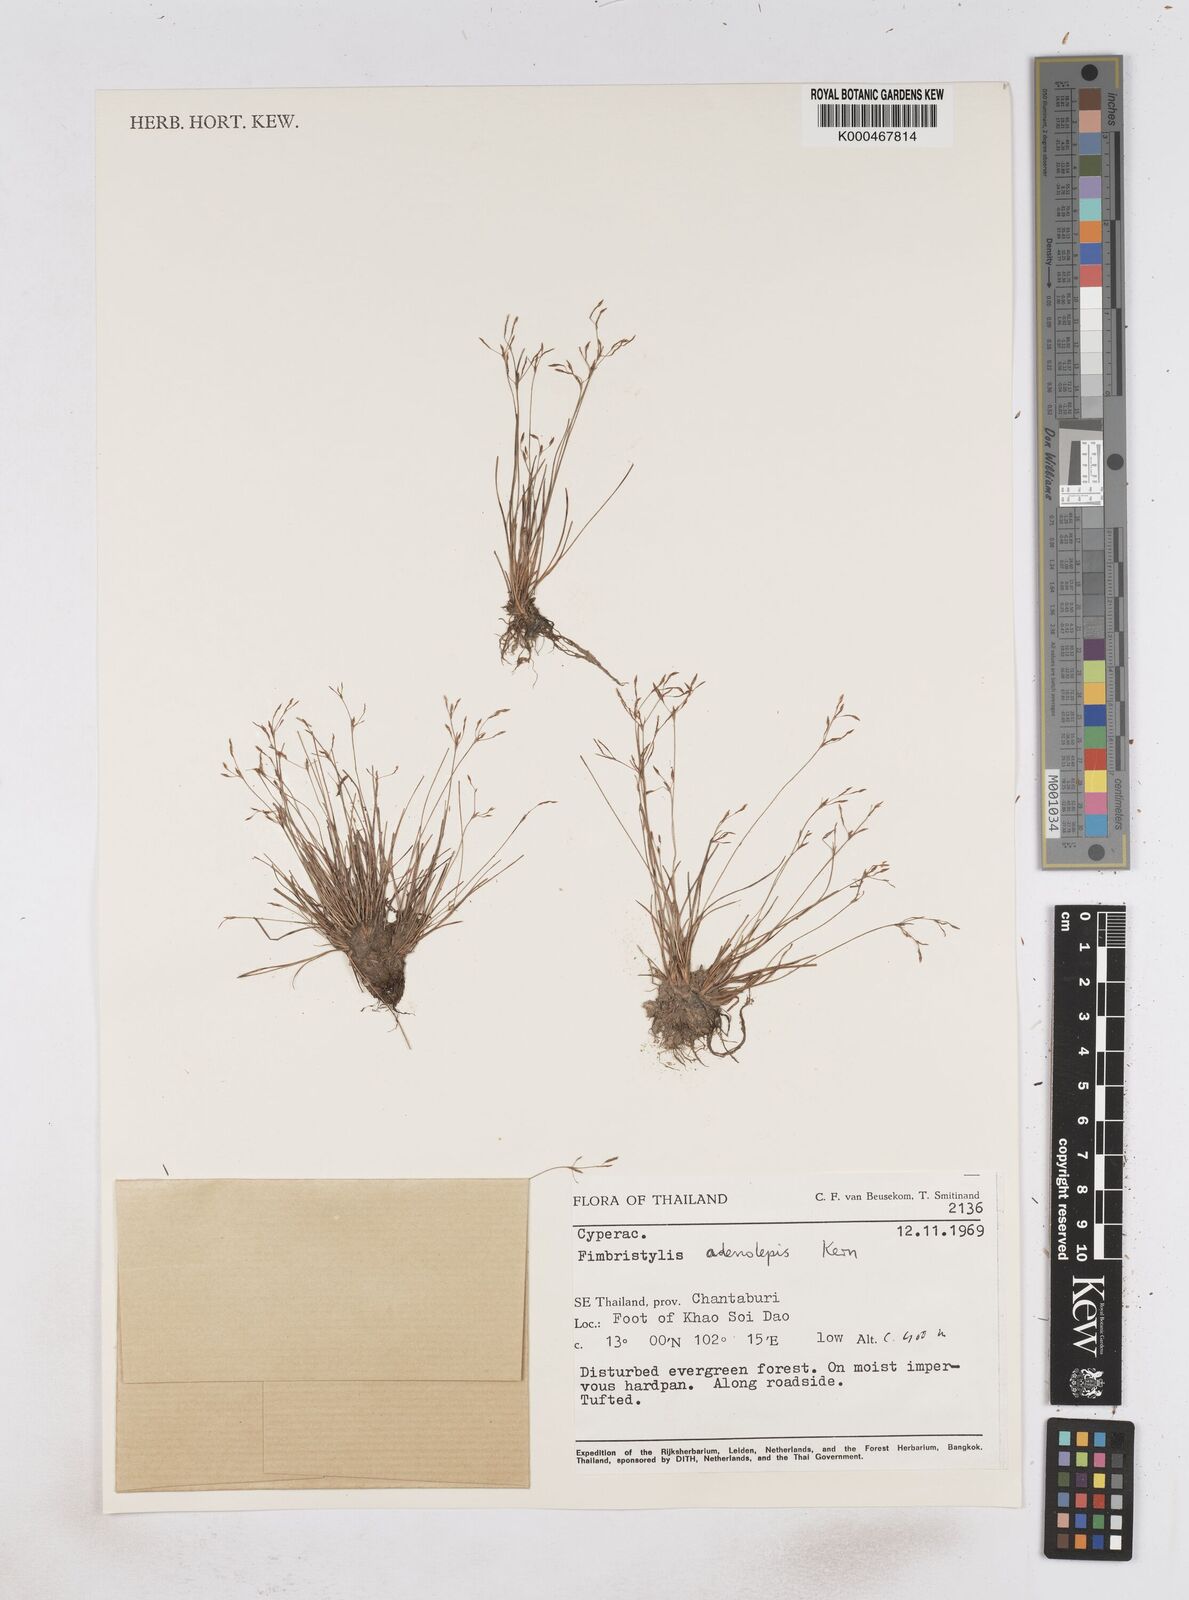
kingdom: Plantae
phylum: Tracheophyta
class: Liliopsida
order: Poales
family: Cyperaceae
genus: Fimbristylis
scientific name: Fimbristylis adenolepis
